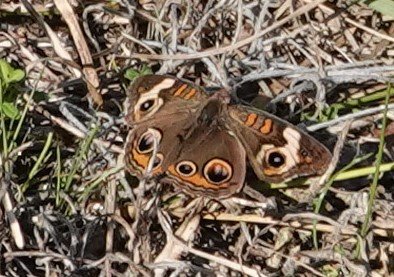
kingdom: Animalia
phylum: Arthropoda
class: Insecta
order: Lepidoptera
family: Nymphalidae
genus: Junonia
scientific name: Junonia coenia
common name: Common Buckeye
